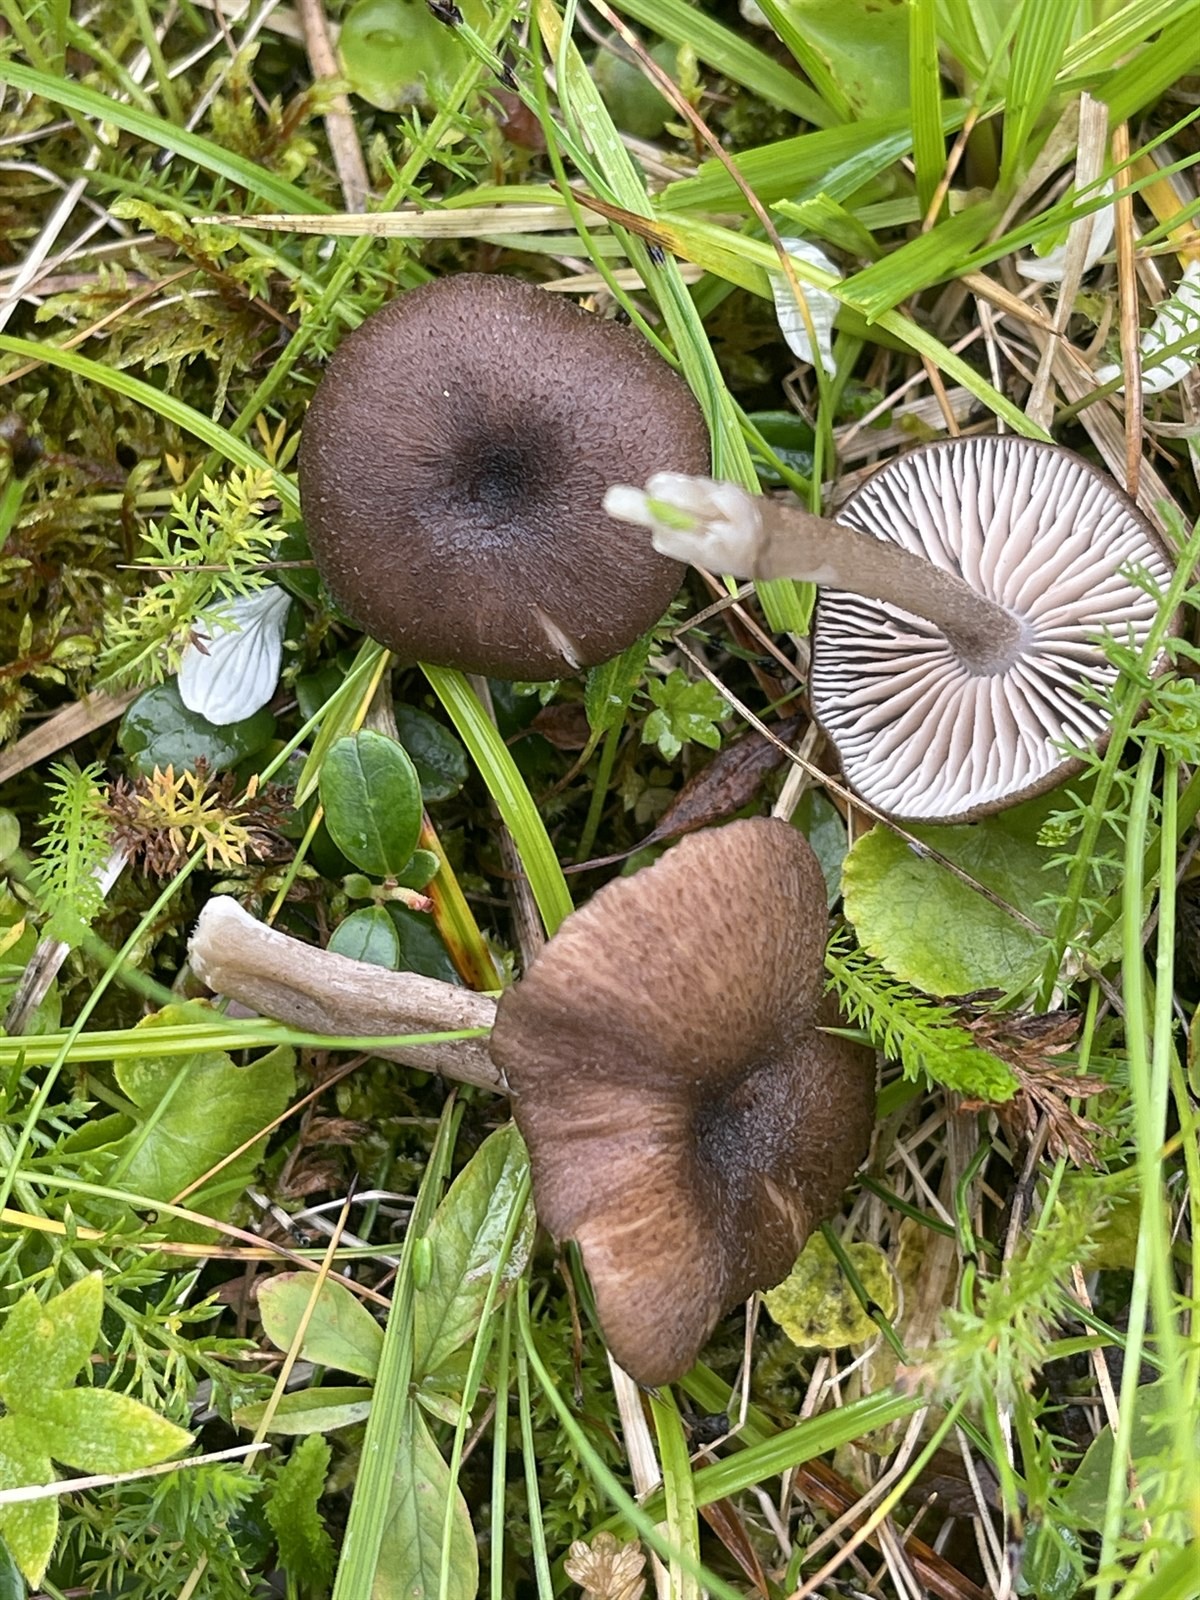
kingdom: Fungi
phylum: Basidiomycota
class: Agaricomycetes
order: Agaricales
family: Entolomataceae
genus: Entoloma
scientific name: Entoloma porphyrogriseum
